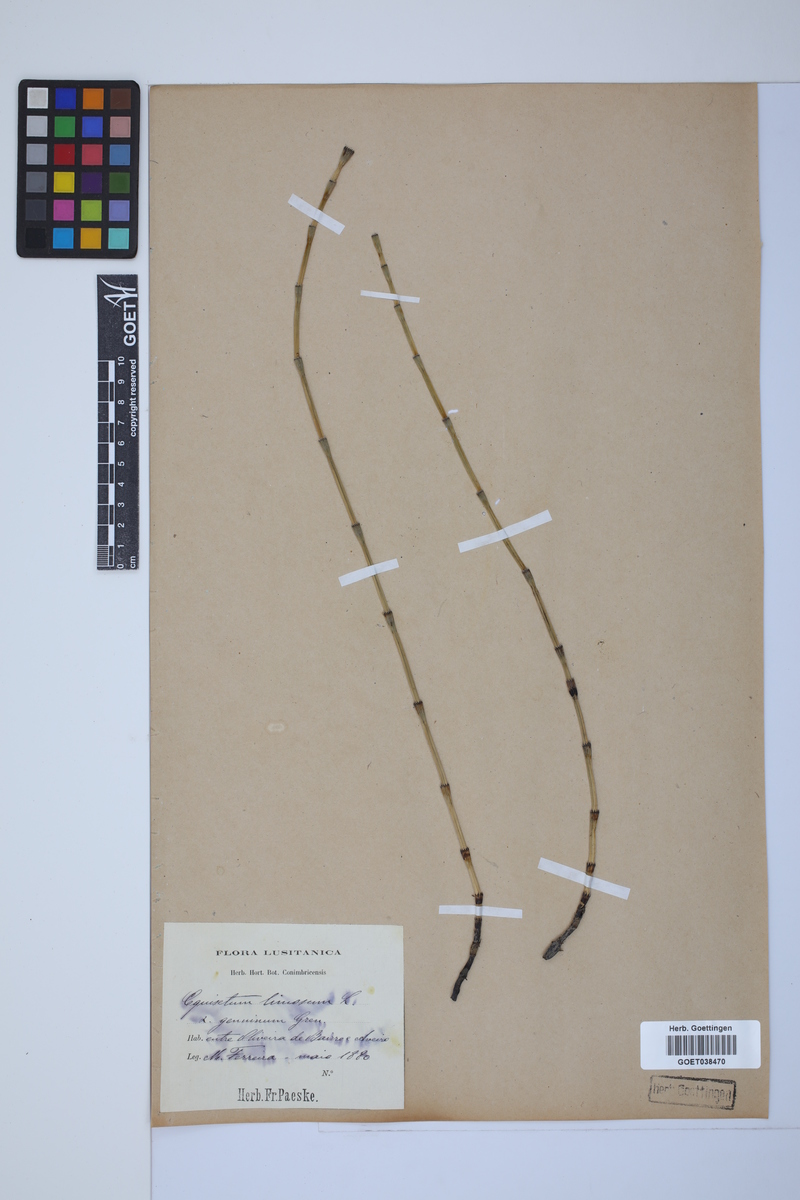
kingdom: Plantae
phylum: Tracheophyta
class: Polypodiopsida
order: Equisetales
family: Equisetaceae
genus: Equisetum
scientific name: Equisetum fluviatile
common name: Water horsetail
